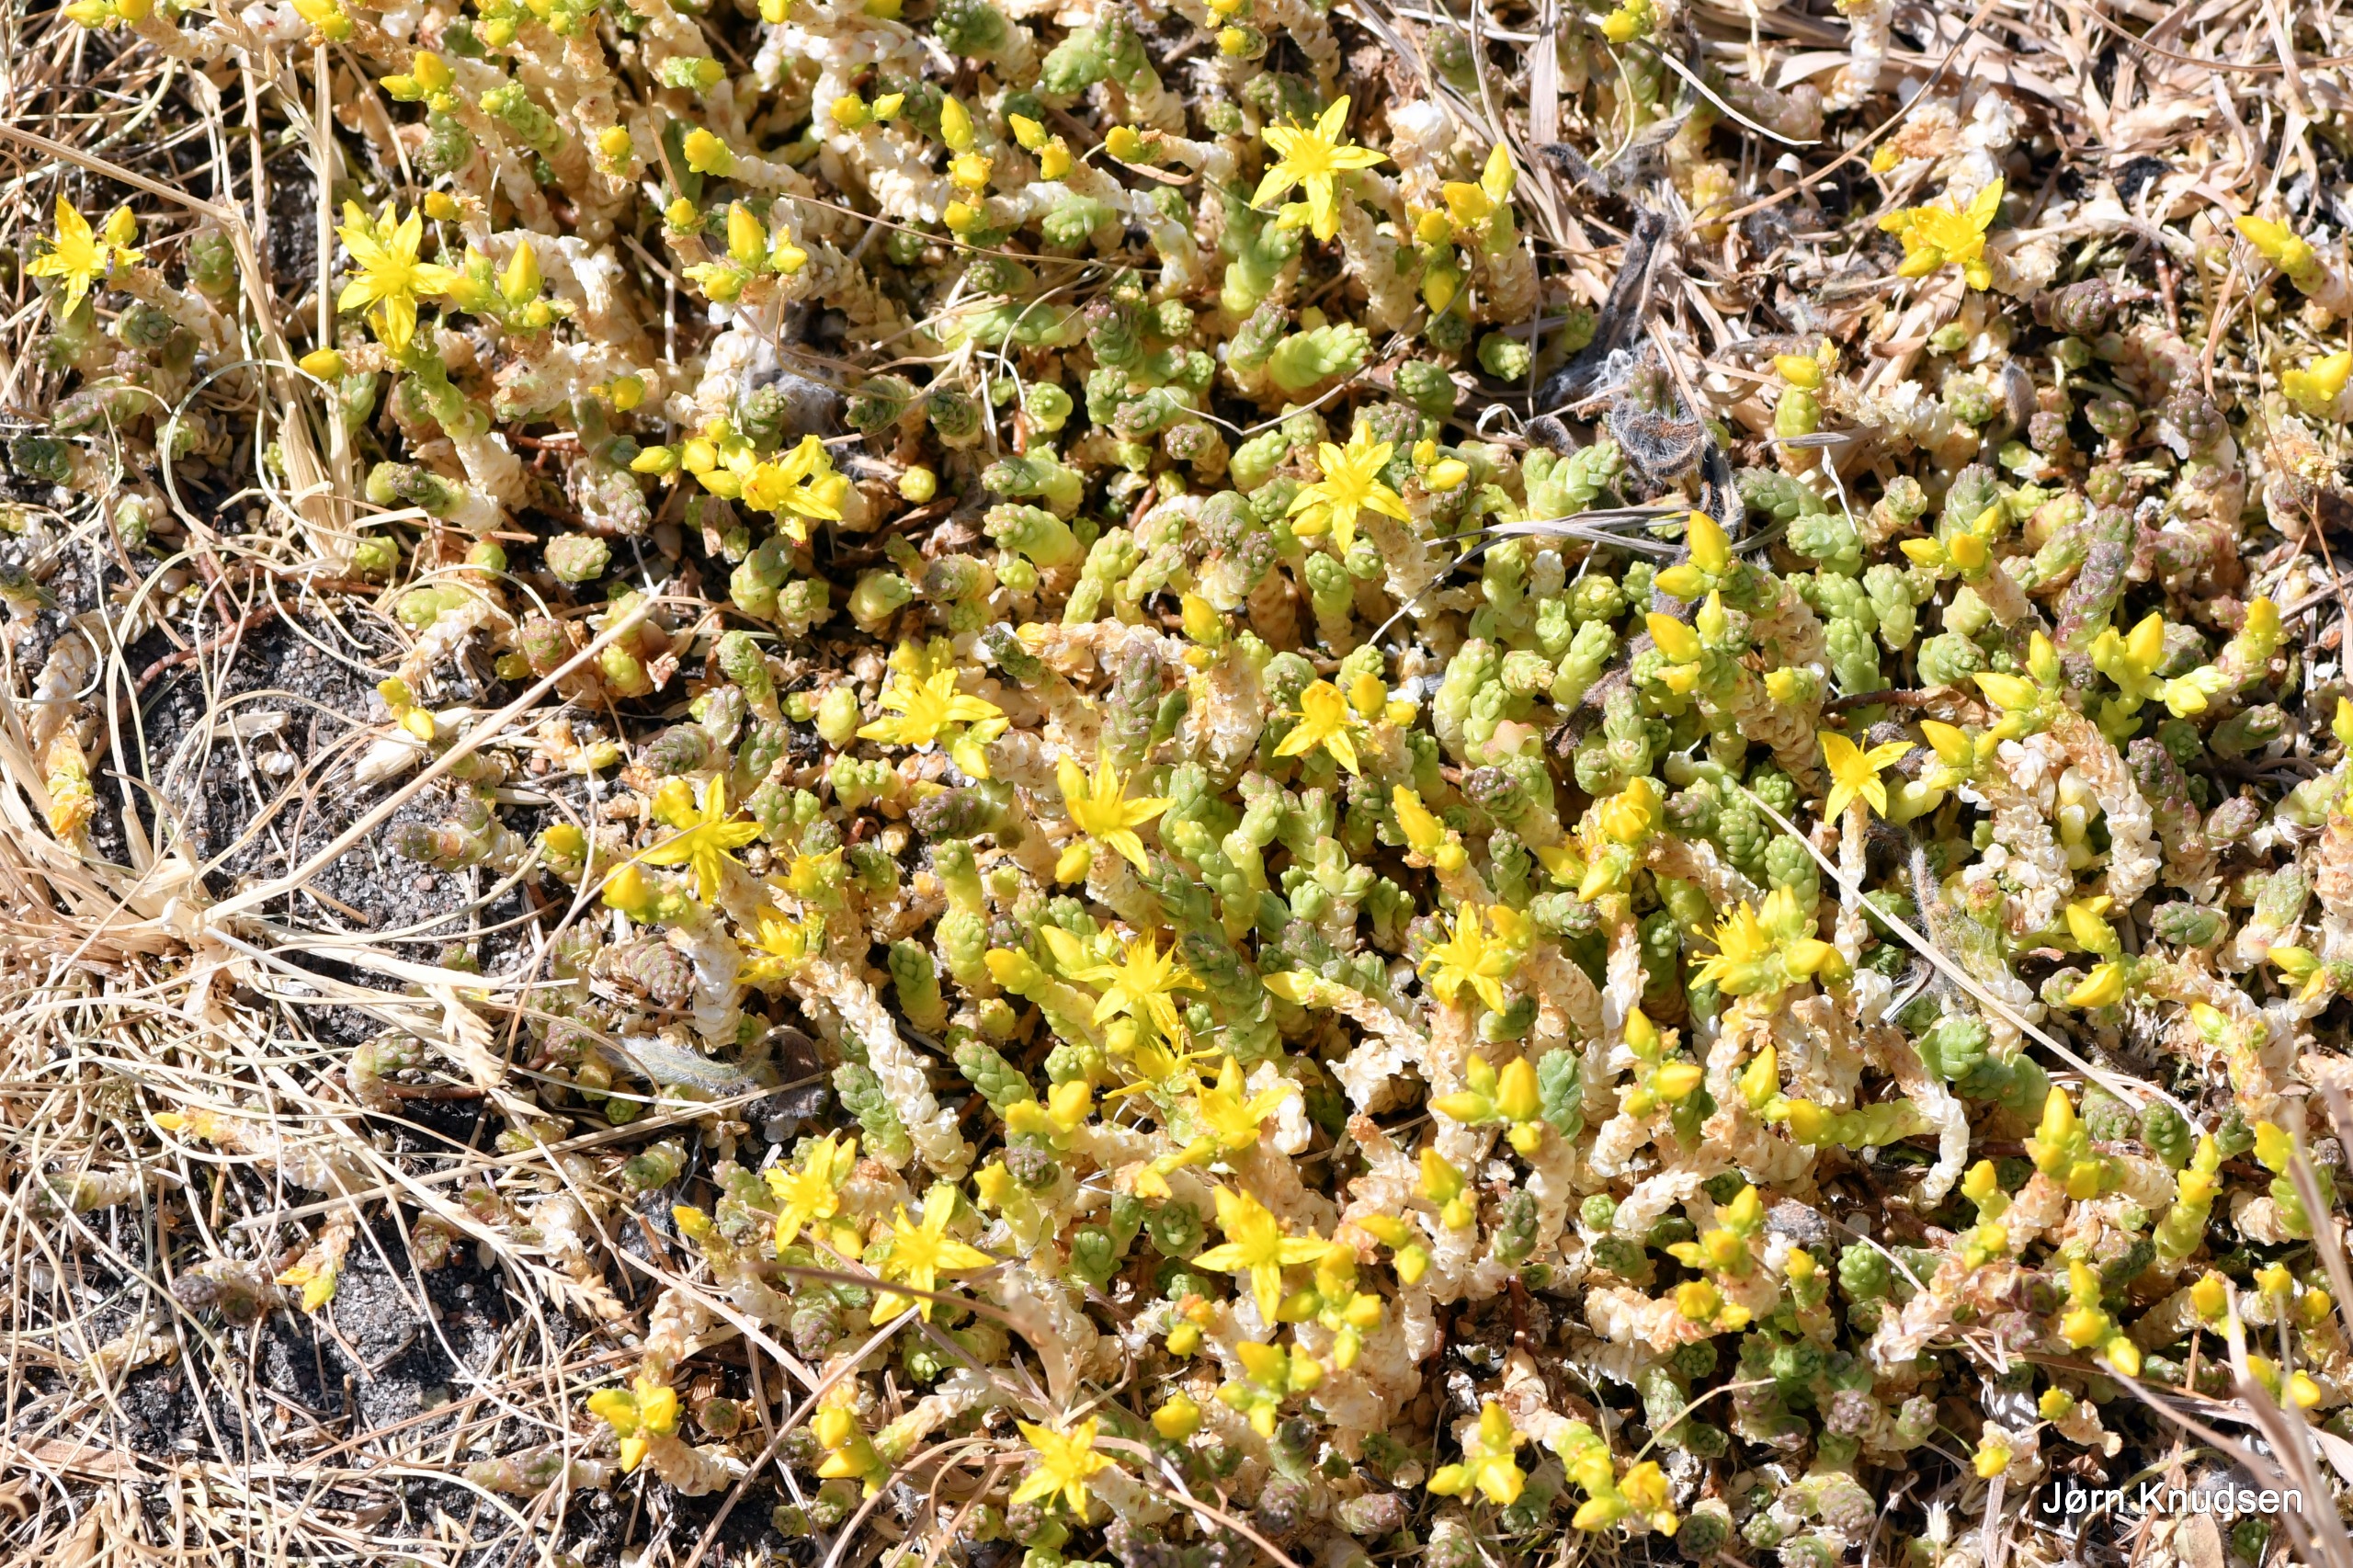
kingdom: Plantae
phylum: Tracheophyta
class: Magnoliopsida
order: Saxifragales
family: Crassulaceae
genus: Sedum
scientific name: Sedum acre
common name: Bidende stenurt
